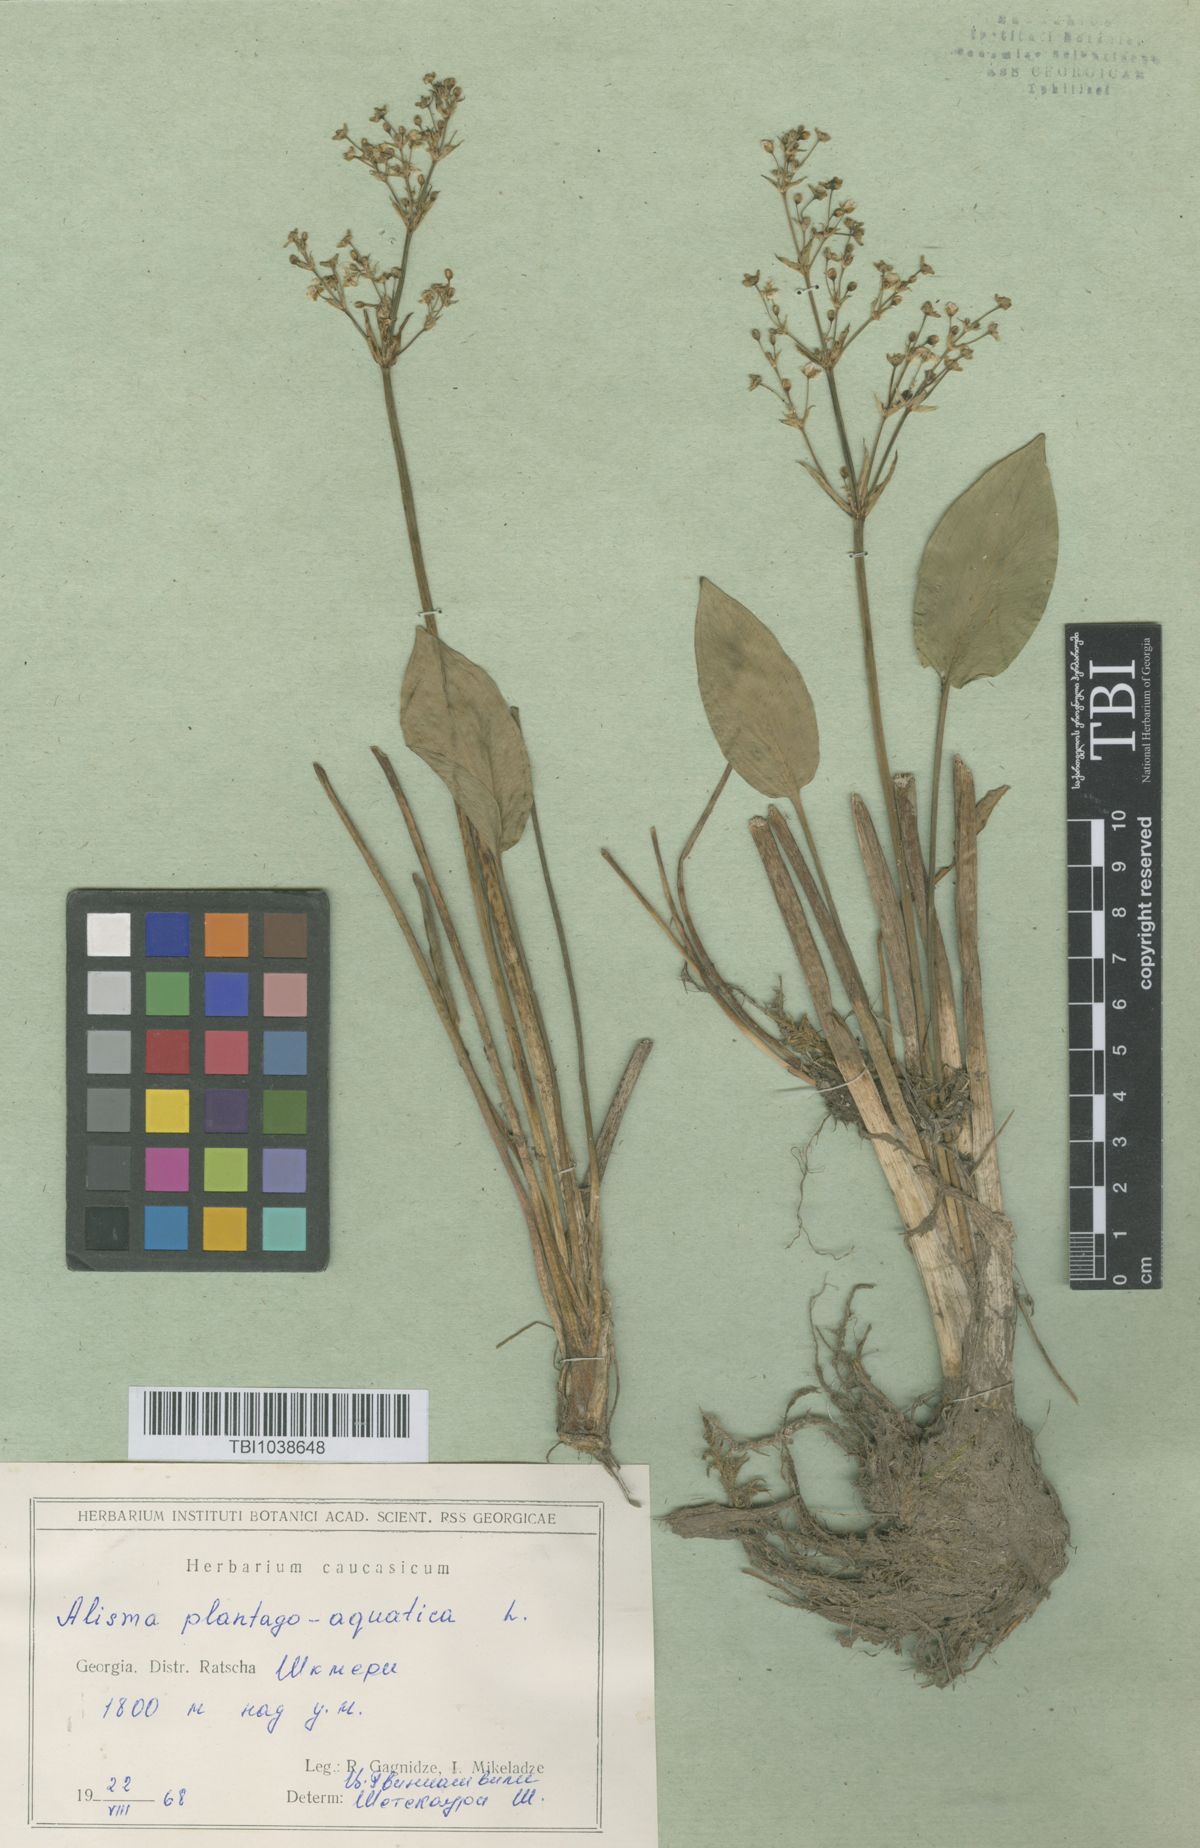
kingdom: Plantae
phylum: Tracheophyta
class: Liliopsida
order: Alismatales
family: Alismataceae
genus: Alisma
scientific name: Alisma plantago-aquatica
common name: Water-plantain
